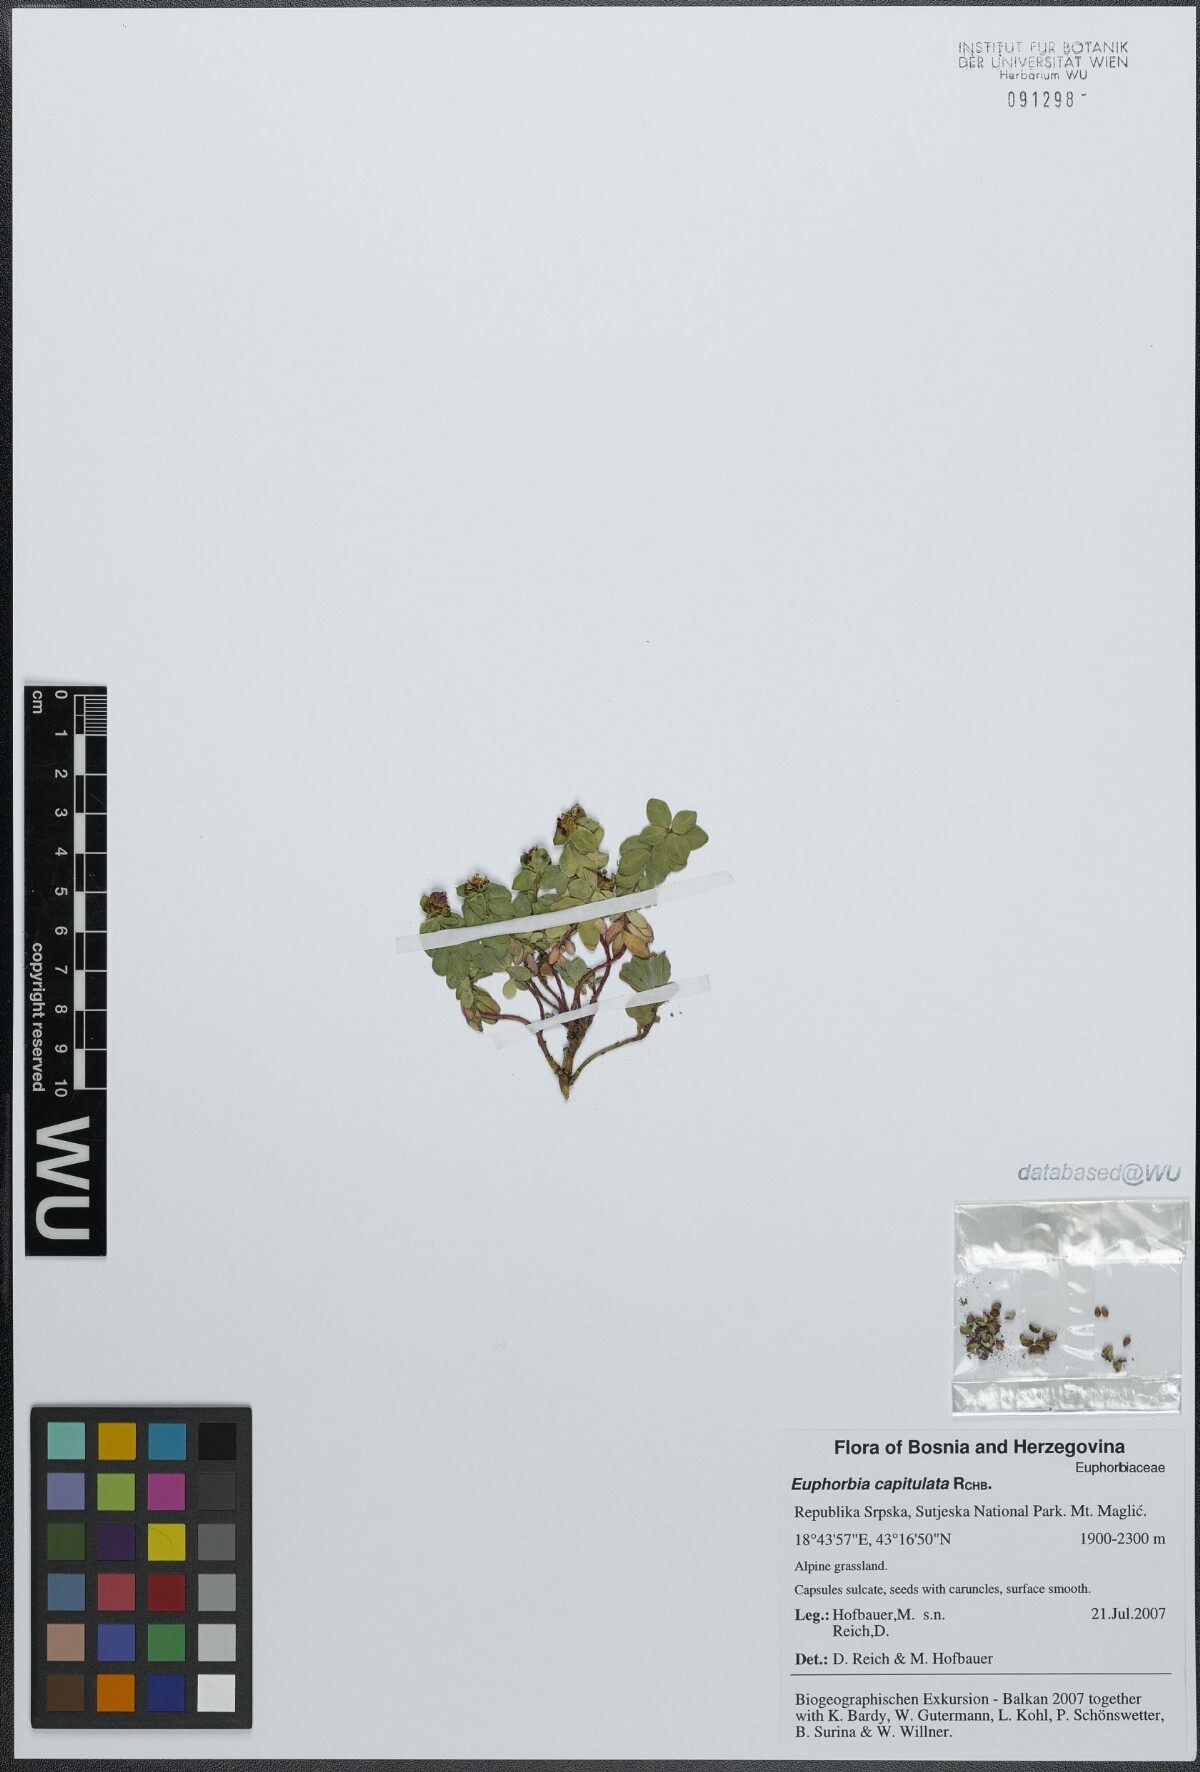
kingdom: Plantae
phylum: Tracheophyta
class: Magnoliopsida
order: Malpighiales
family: Euphorbiaceae
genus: Euphorbia
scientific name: Euphorbia capitulata
